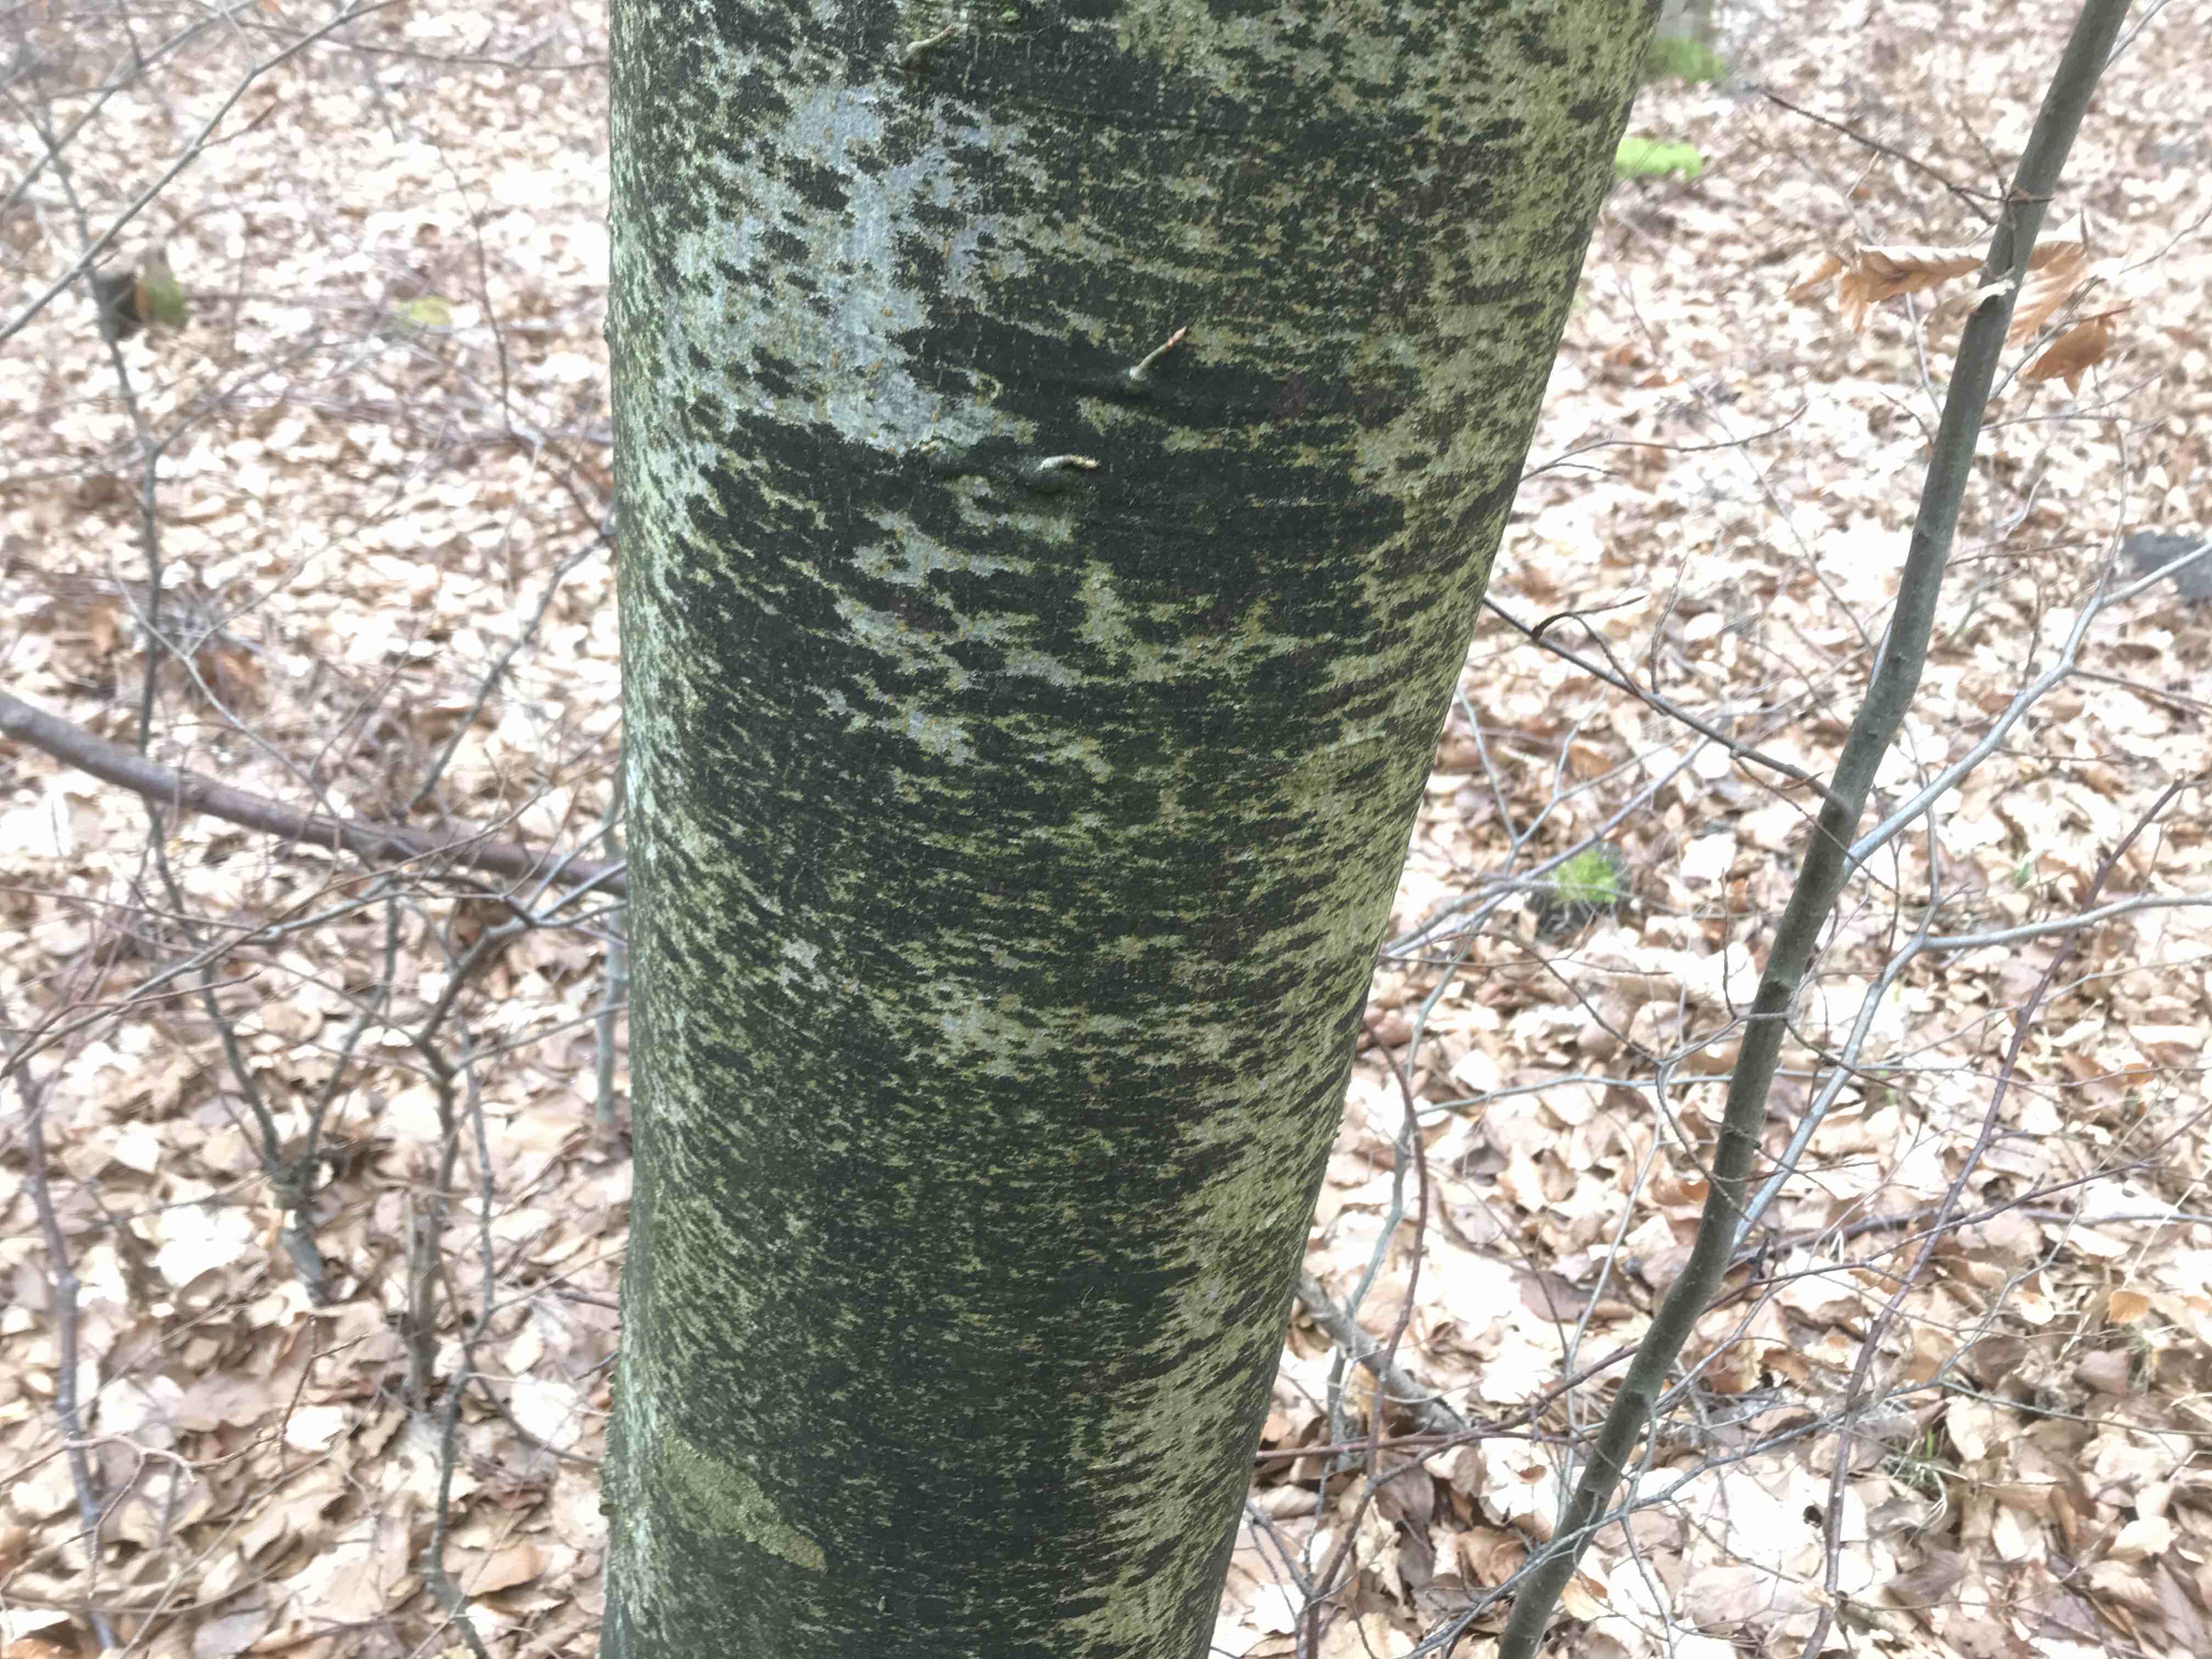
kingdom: Fungi
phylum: Ascomycota
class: Leotiomycetes
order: Rhytismatales
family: Ascodichaenaceae
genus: Ascodichaena
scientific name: Ascodichaena rugosa
